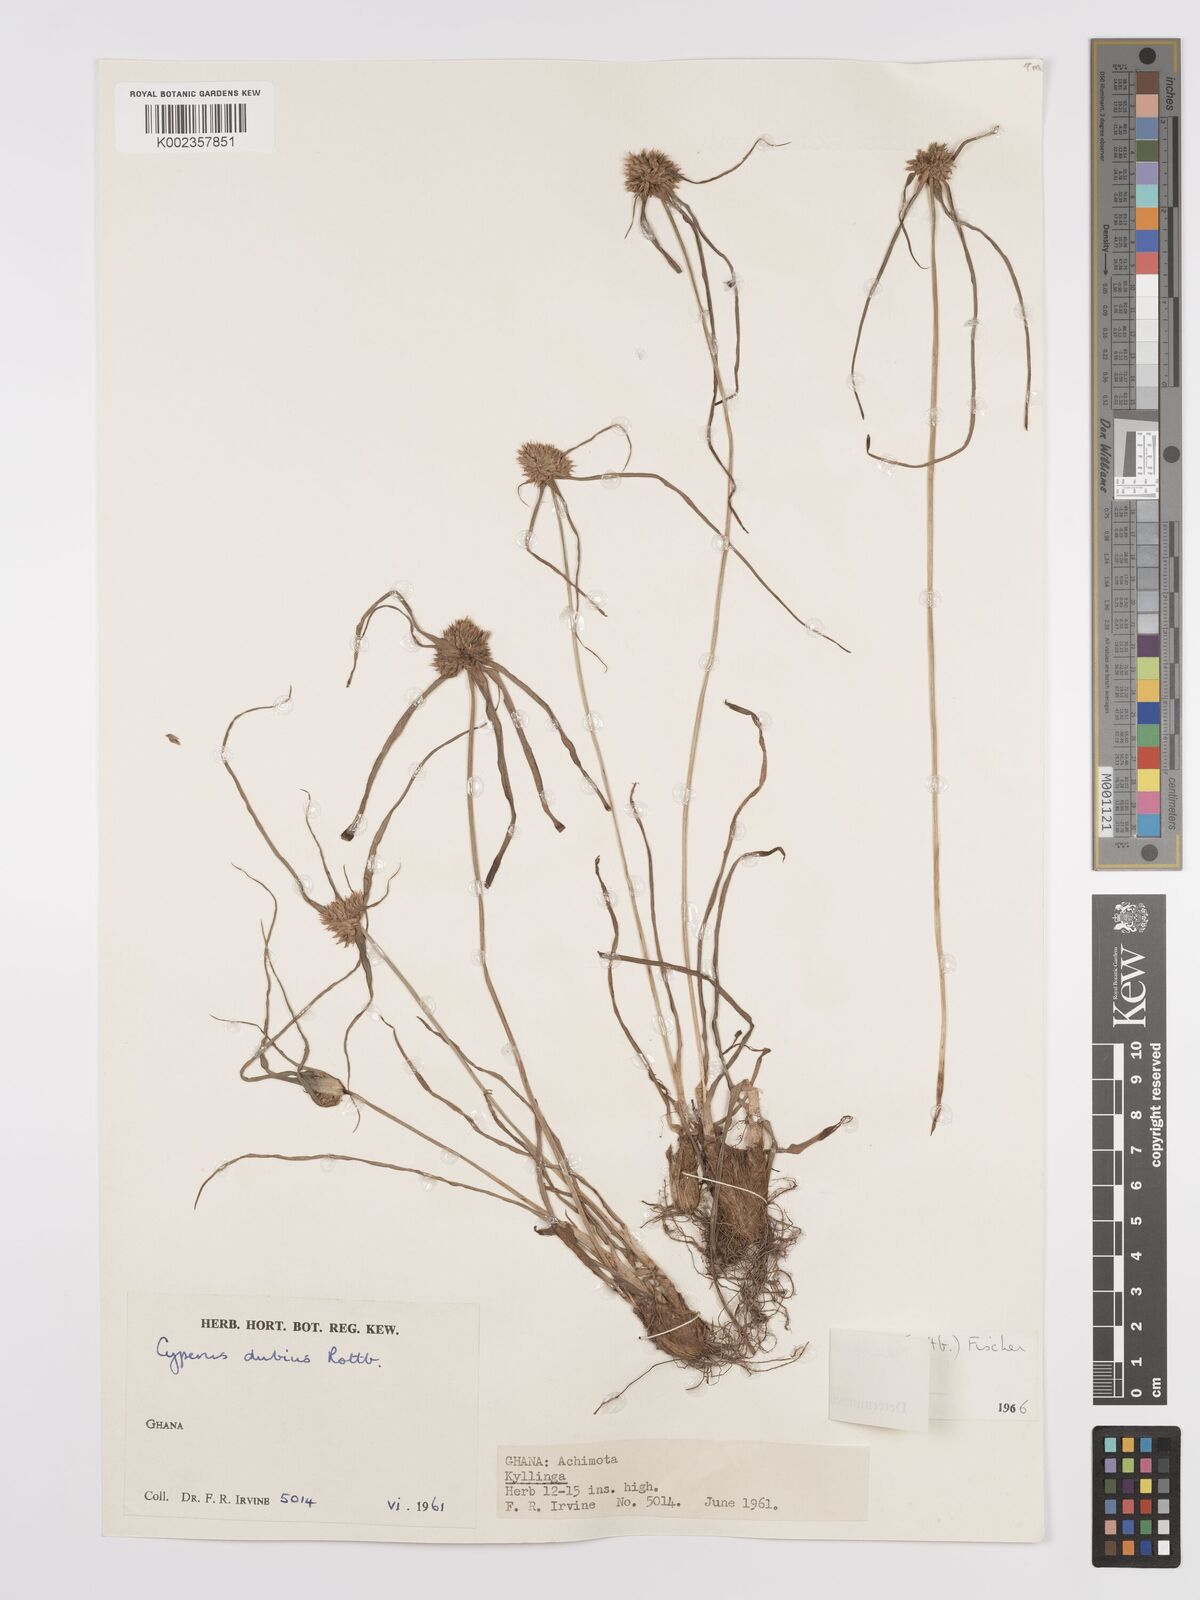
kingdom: Plantae
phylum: Tracheophyta
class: Liliopsida
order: Poales
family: Cyperaceae
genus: Cyperus
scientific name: Cyperus dubius
